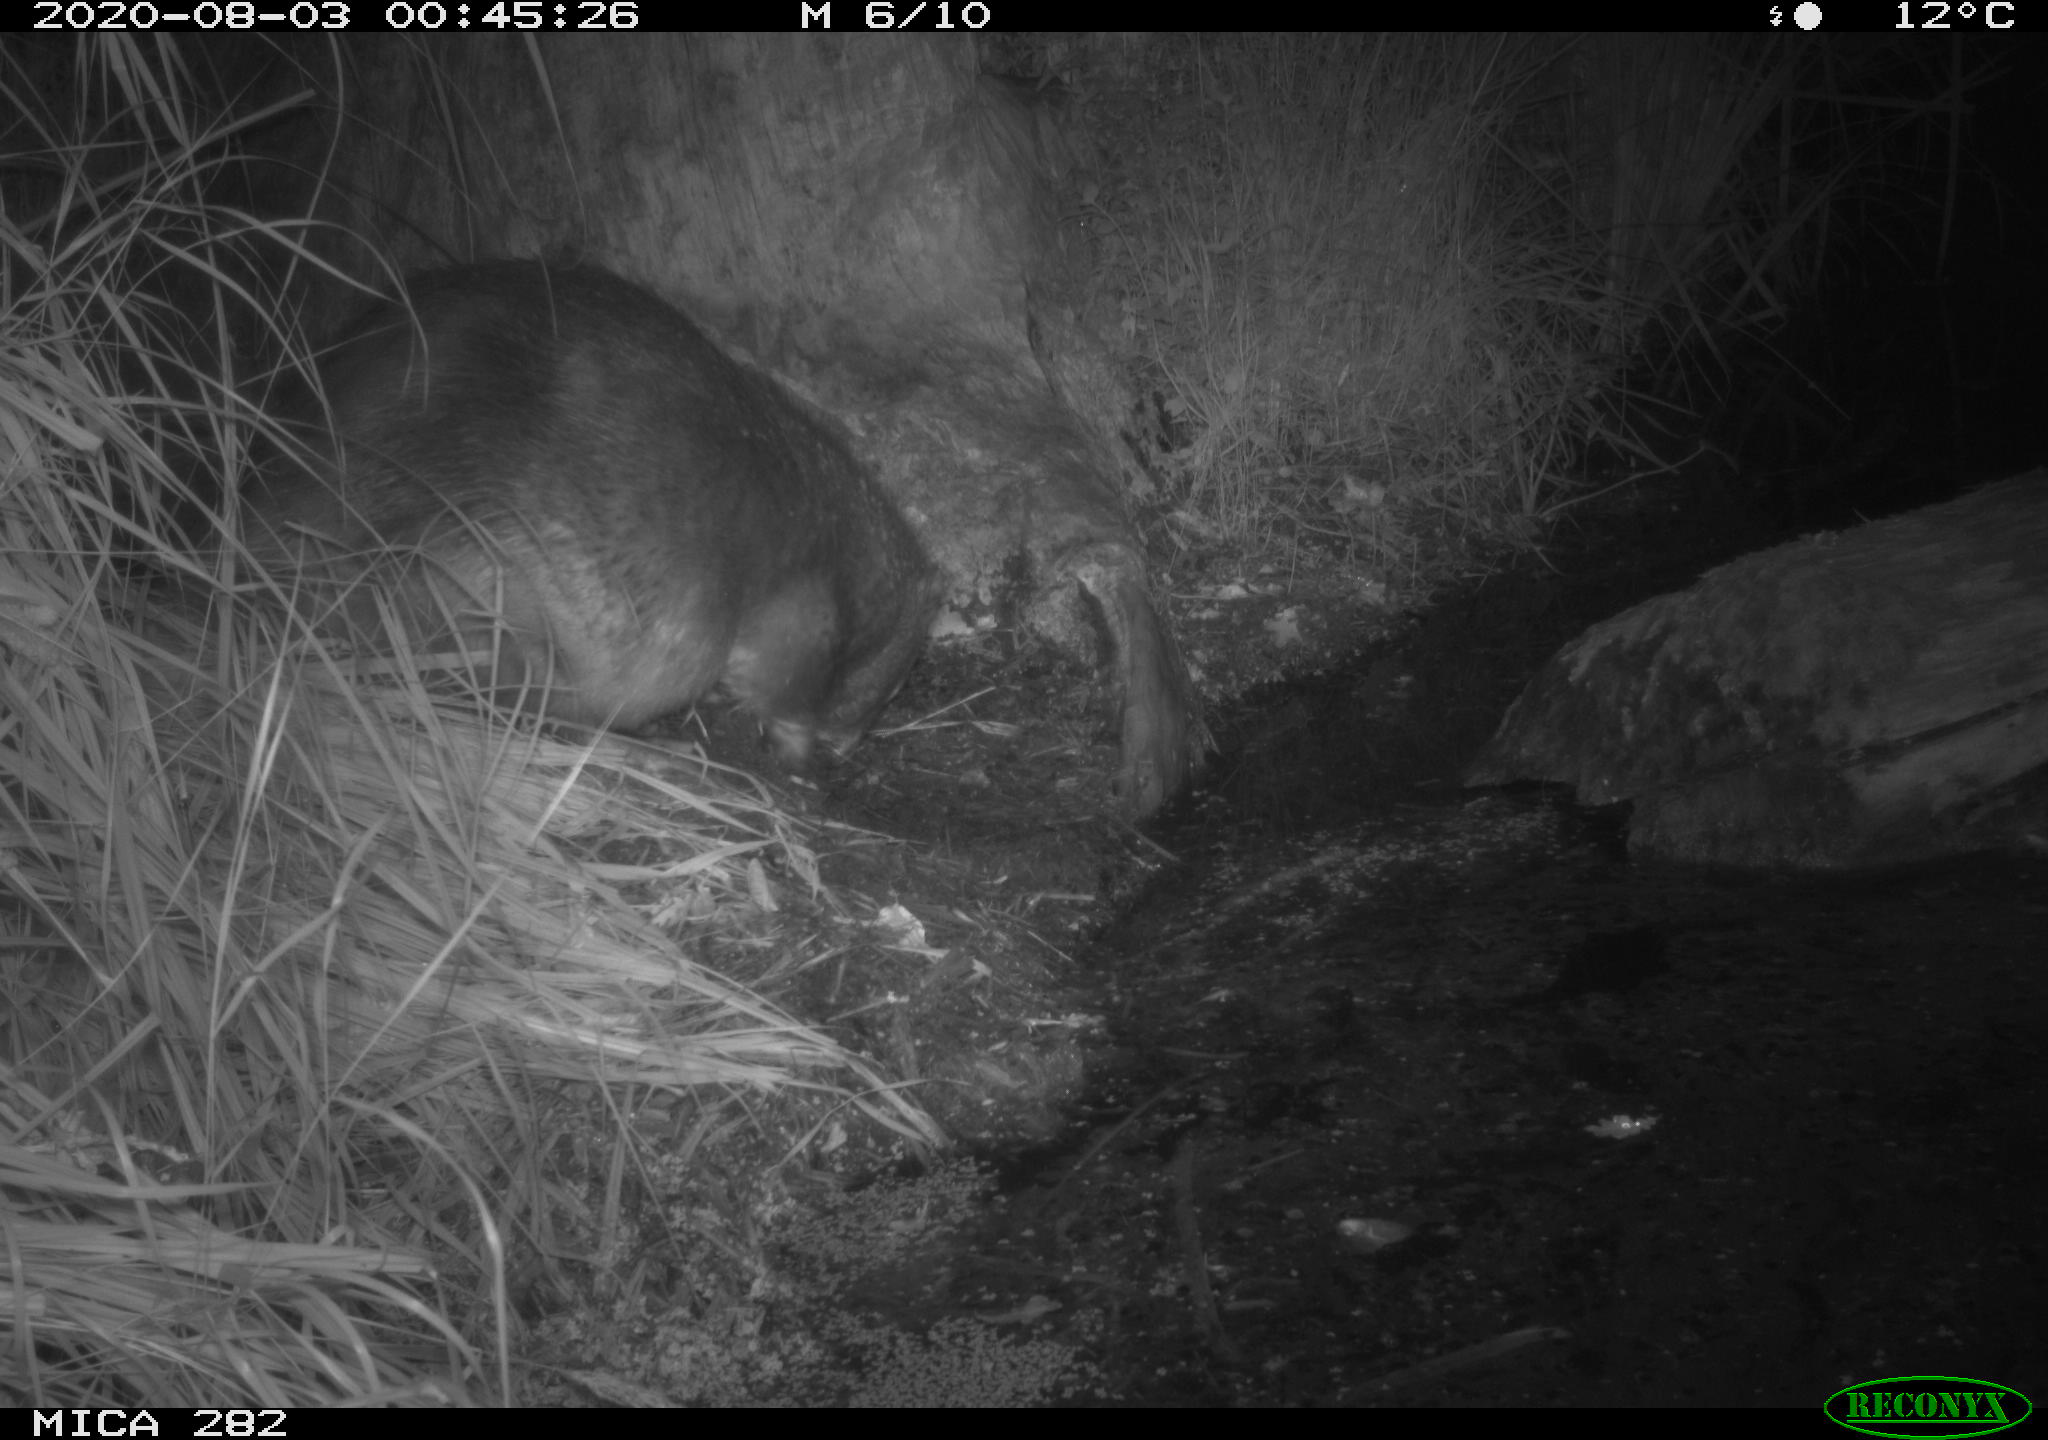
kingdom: Animalia
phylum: Chordata
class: Mammalia
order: Rodentia
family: Castoridae
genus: Castor
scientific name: Castor fiber
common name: Eurasian beaver
